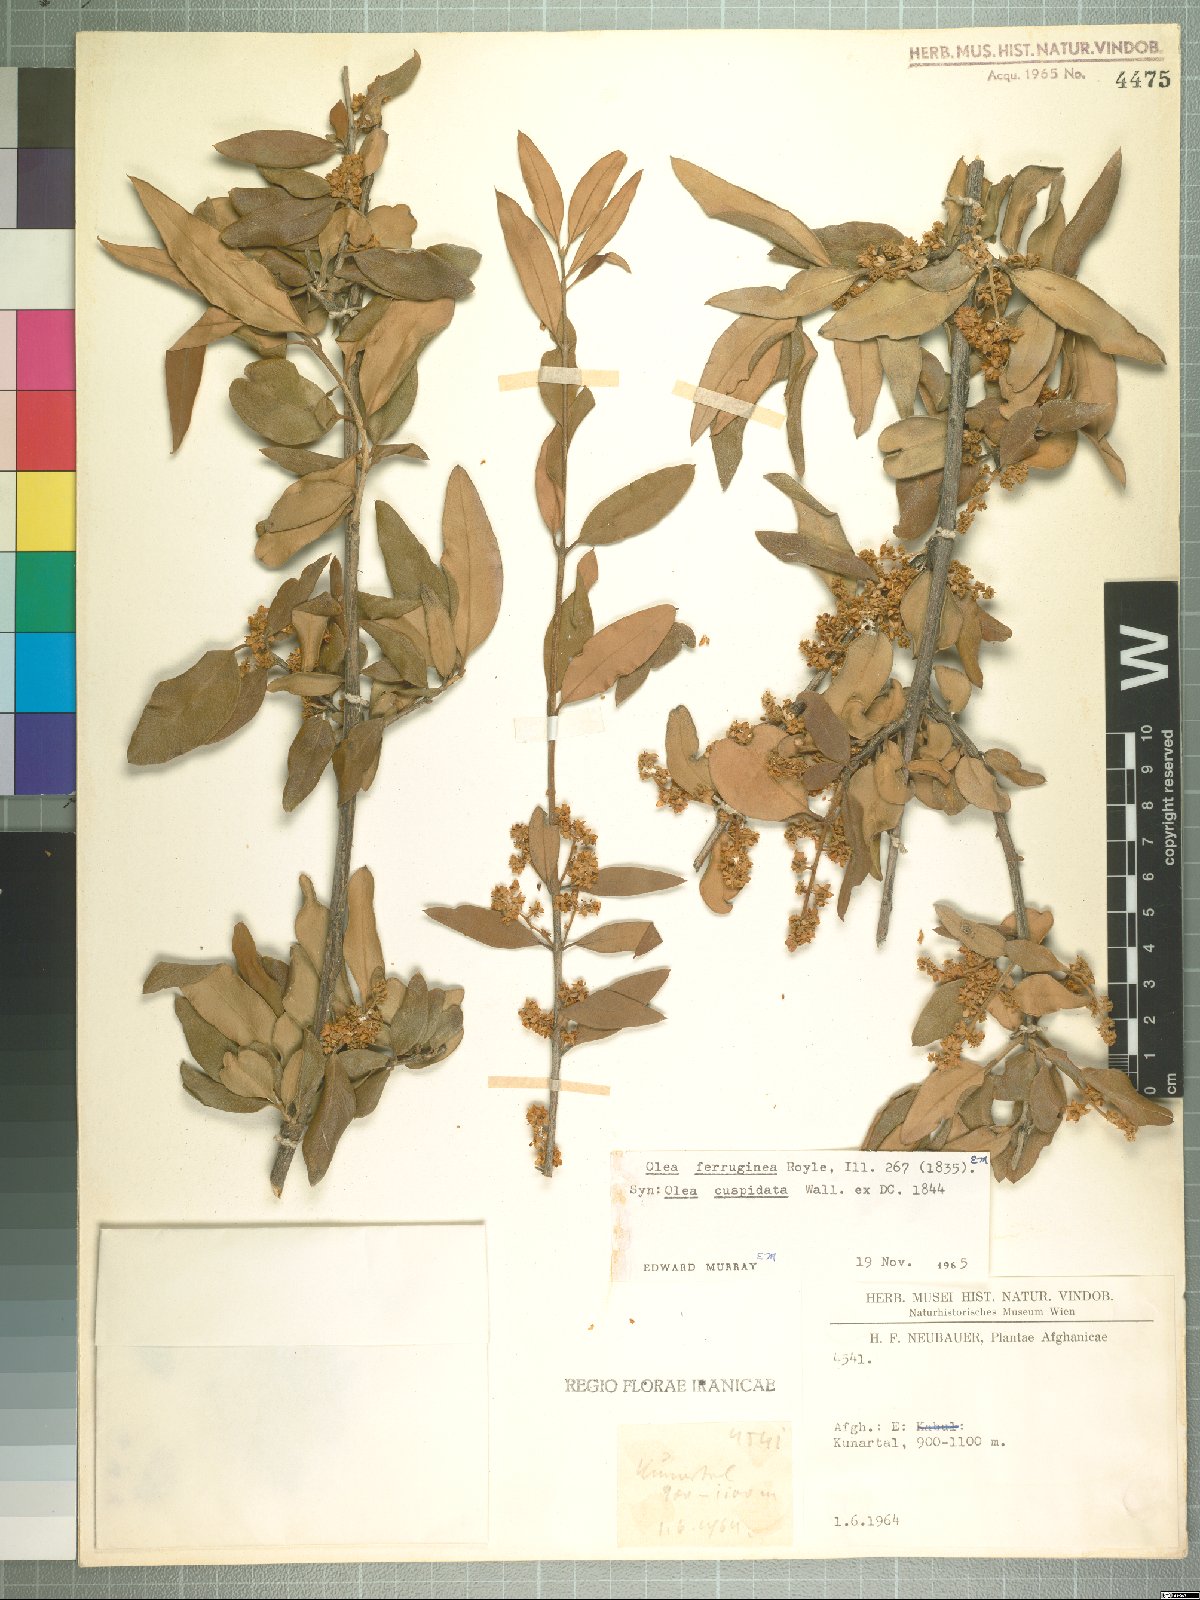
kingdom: Plantae
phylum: Tracheophyta
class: Magnoliopsida
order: Lamiales
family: Oleaceae
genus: Olea
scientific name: Olea europaea
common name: Olive
